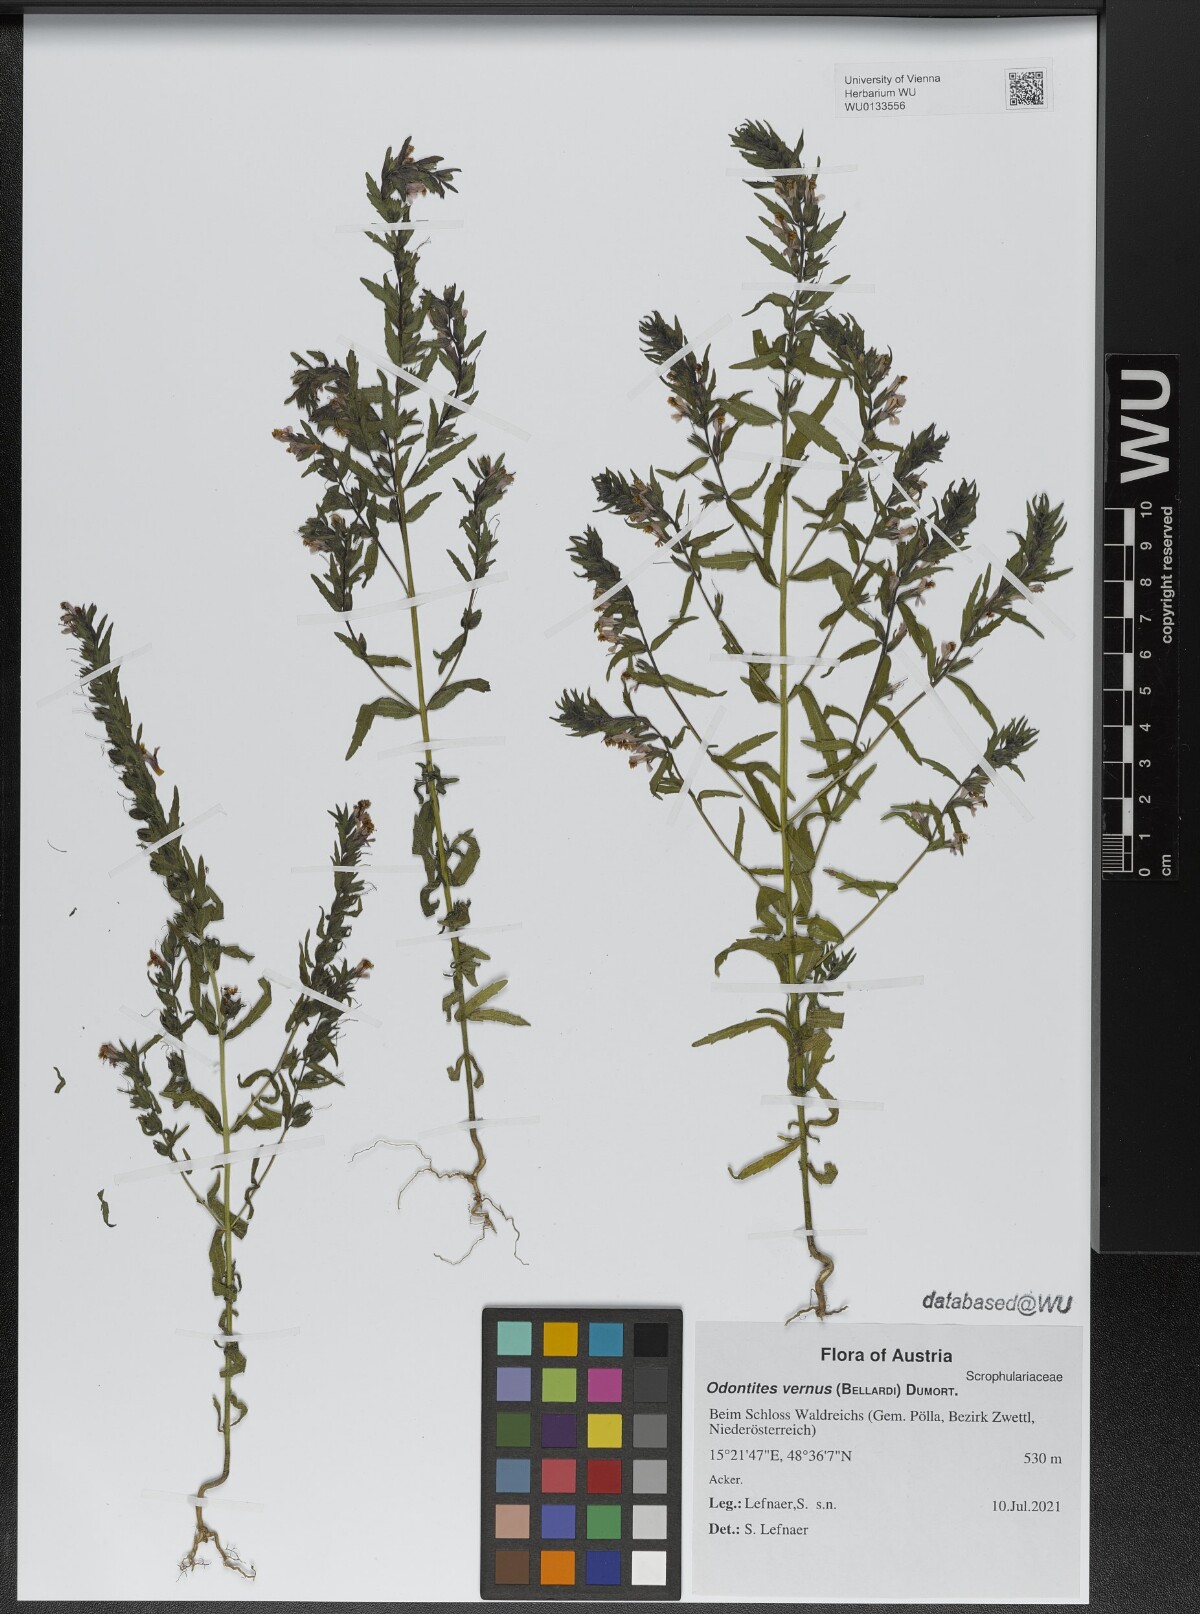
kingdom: Plantae
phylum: Tracheophyta
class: Magnoliopsida
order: Lamiales
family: Orobanchaceae
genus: Odontites
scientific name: Odontites vernus
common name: Red bartsia
